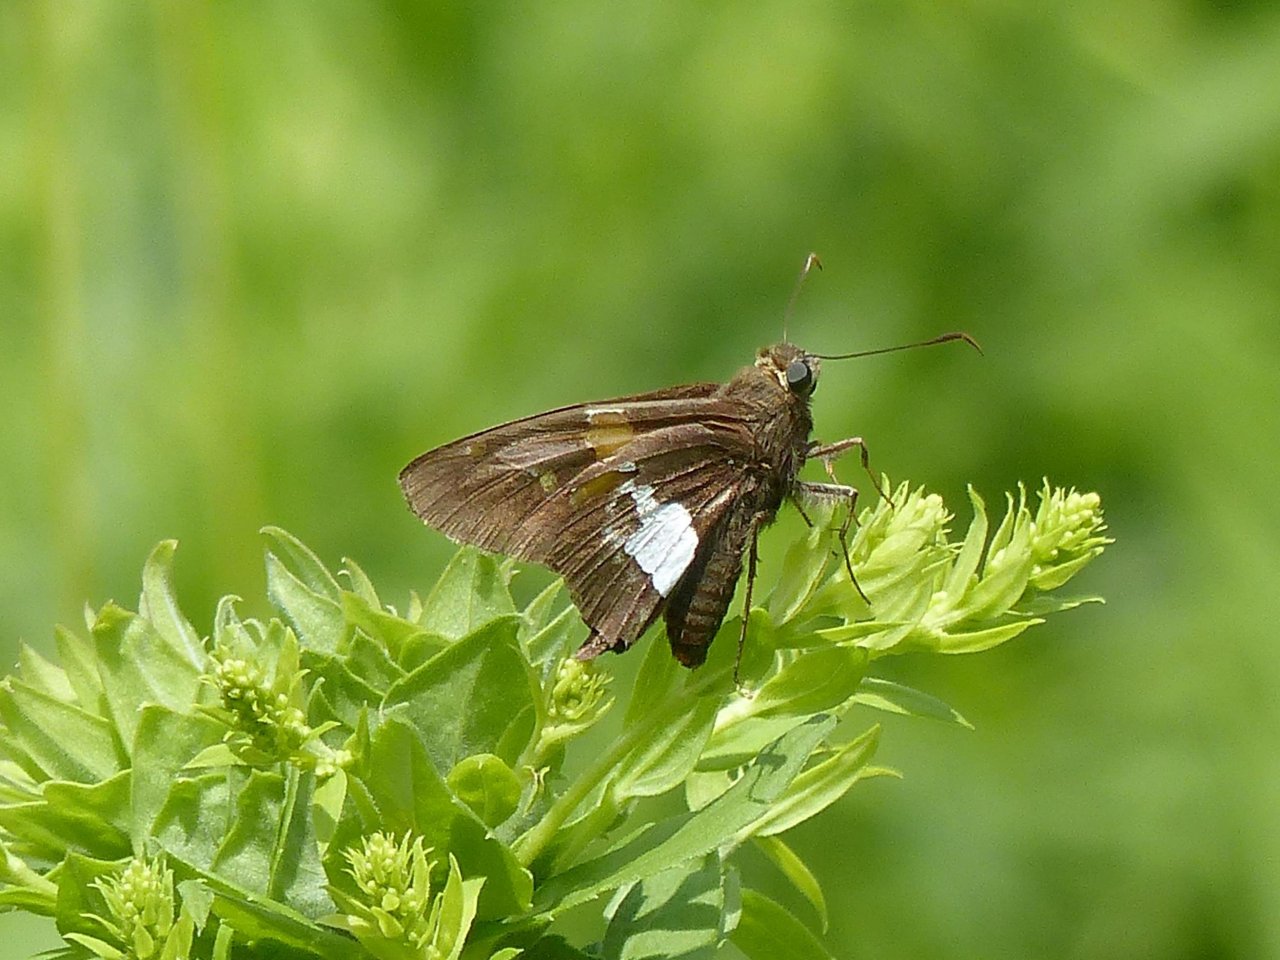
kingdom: Animalia
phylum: Arthropoda
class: Insecta
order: Lepidoptera
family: Hesperiidae
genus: Epargyreus
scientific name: Epargyreus clarus
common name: Silver-spotted Skipper
